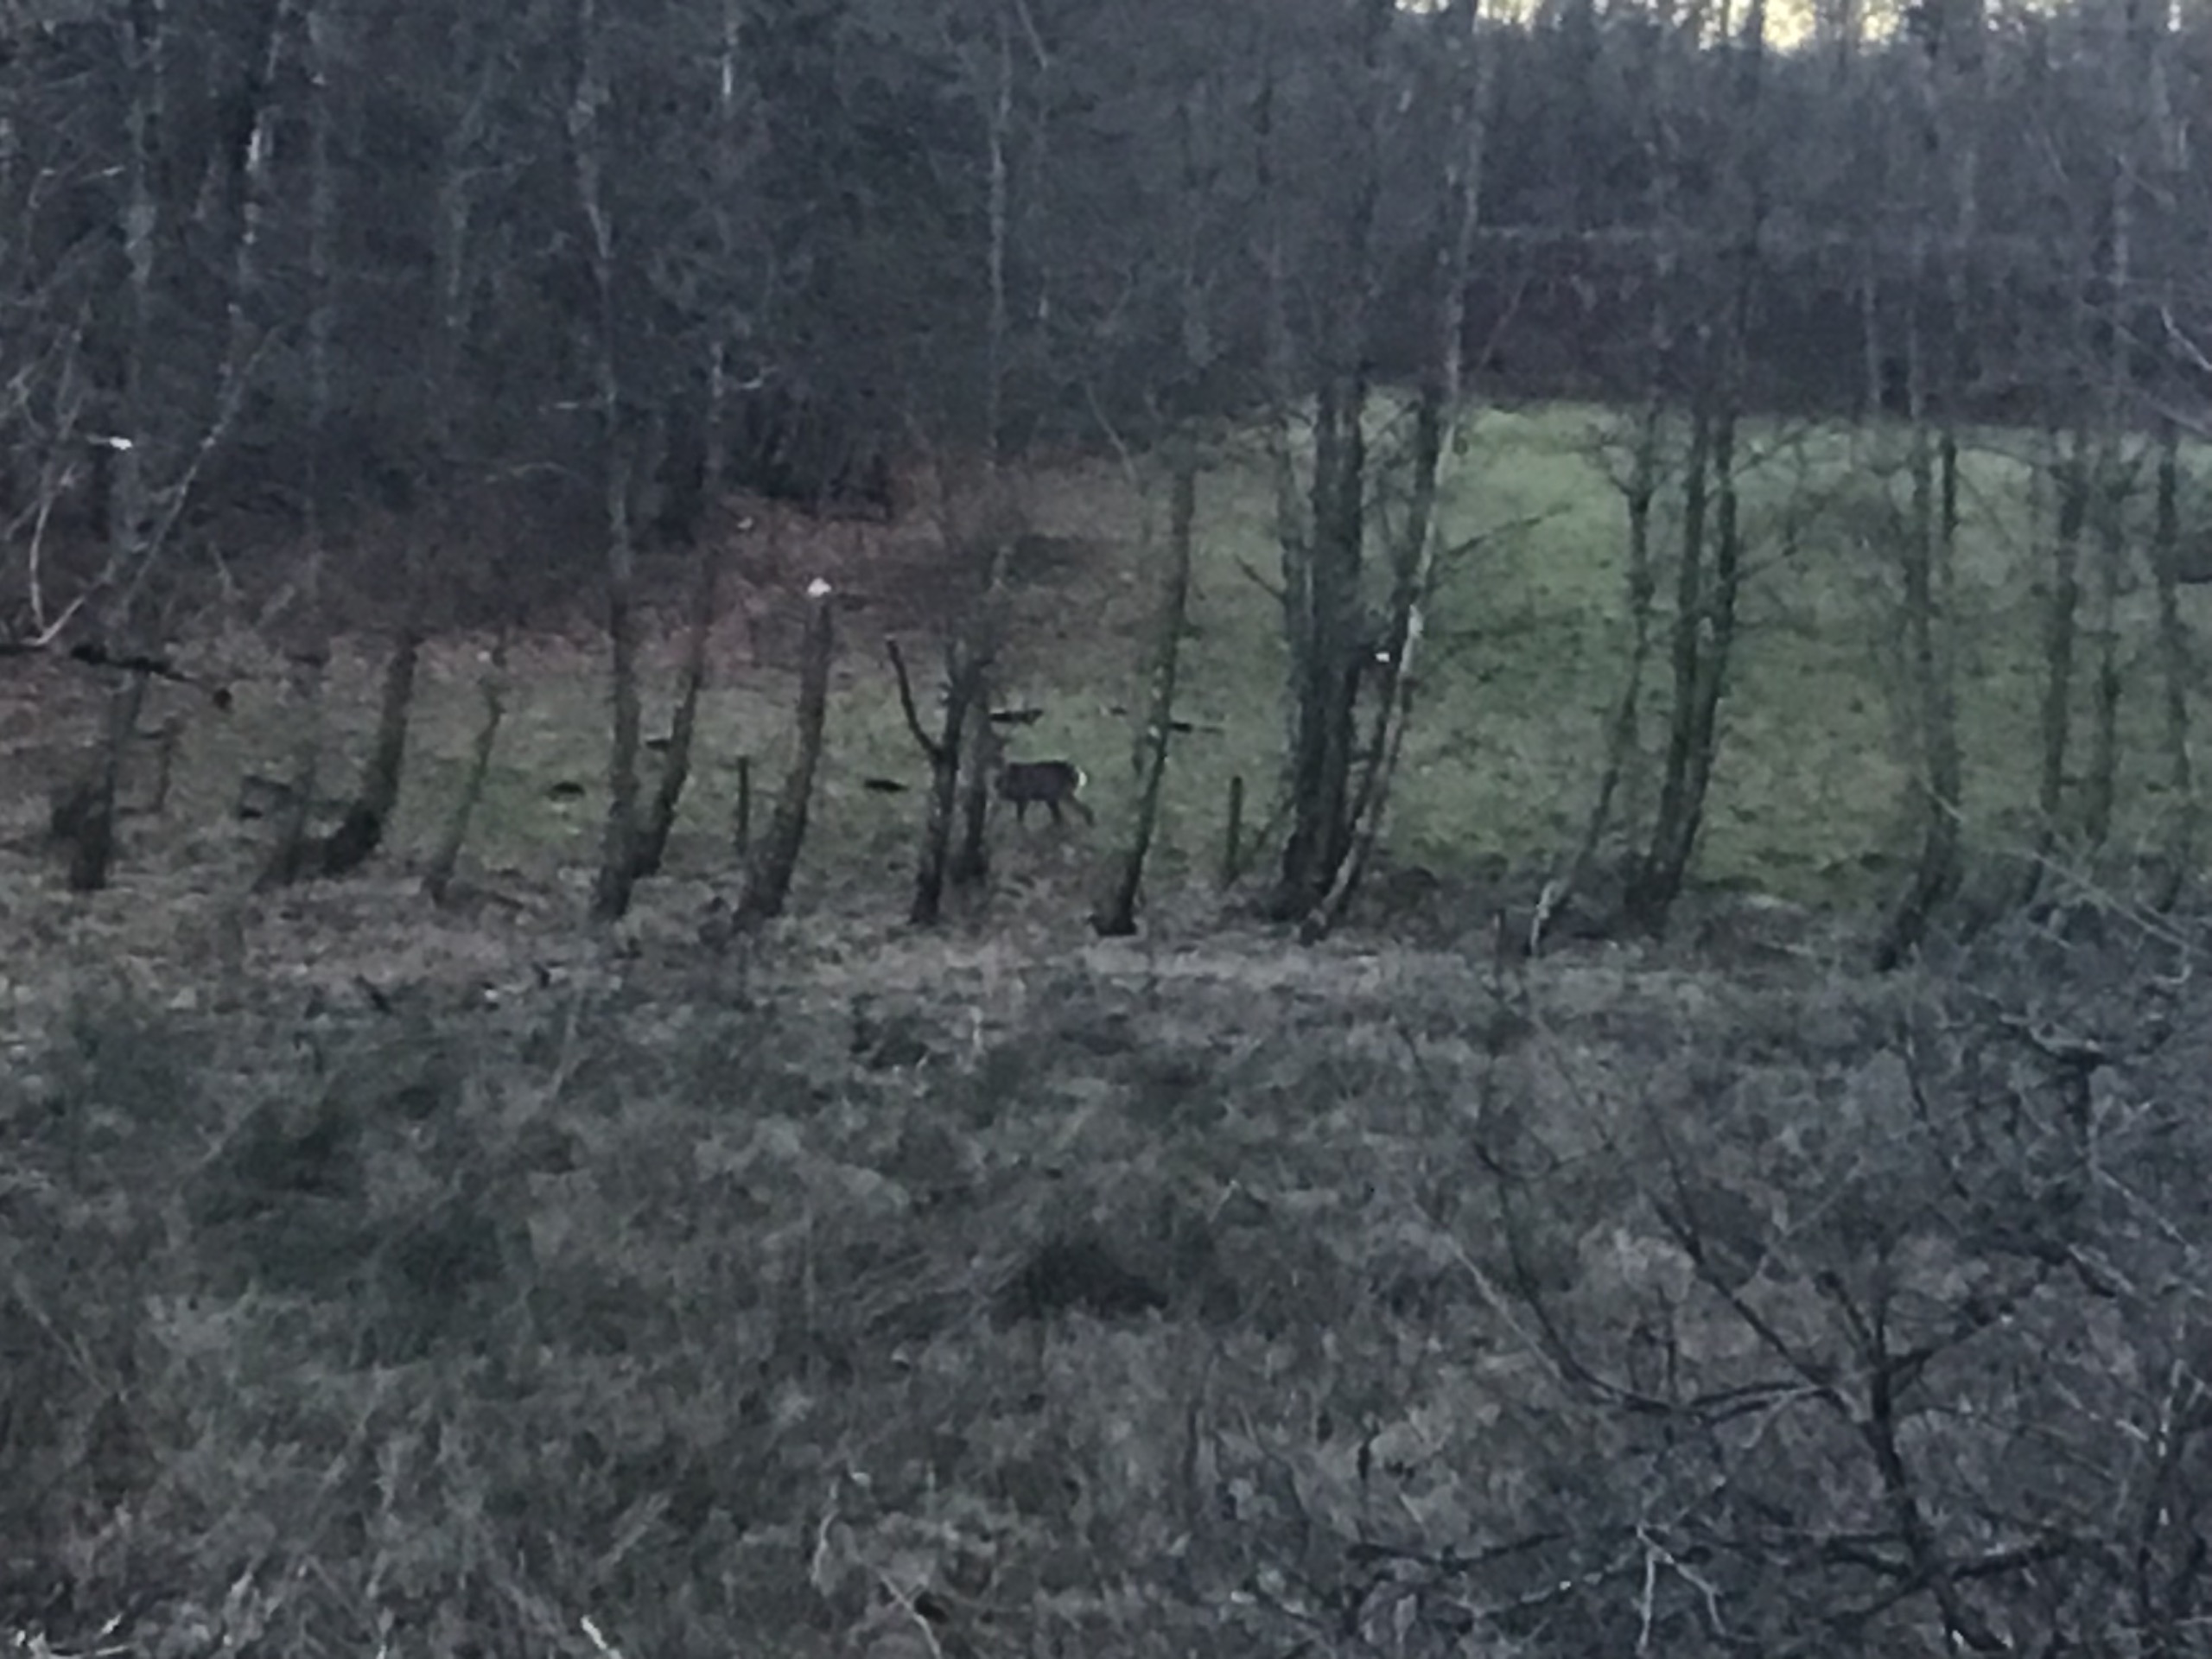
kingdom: Animalia
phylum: Chordata
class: Mammalia
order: Artiodactyla
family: Cervidae
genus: Capreolus
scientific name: Capreolus capreolus
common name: Rådyr
